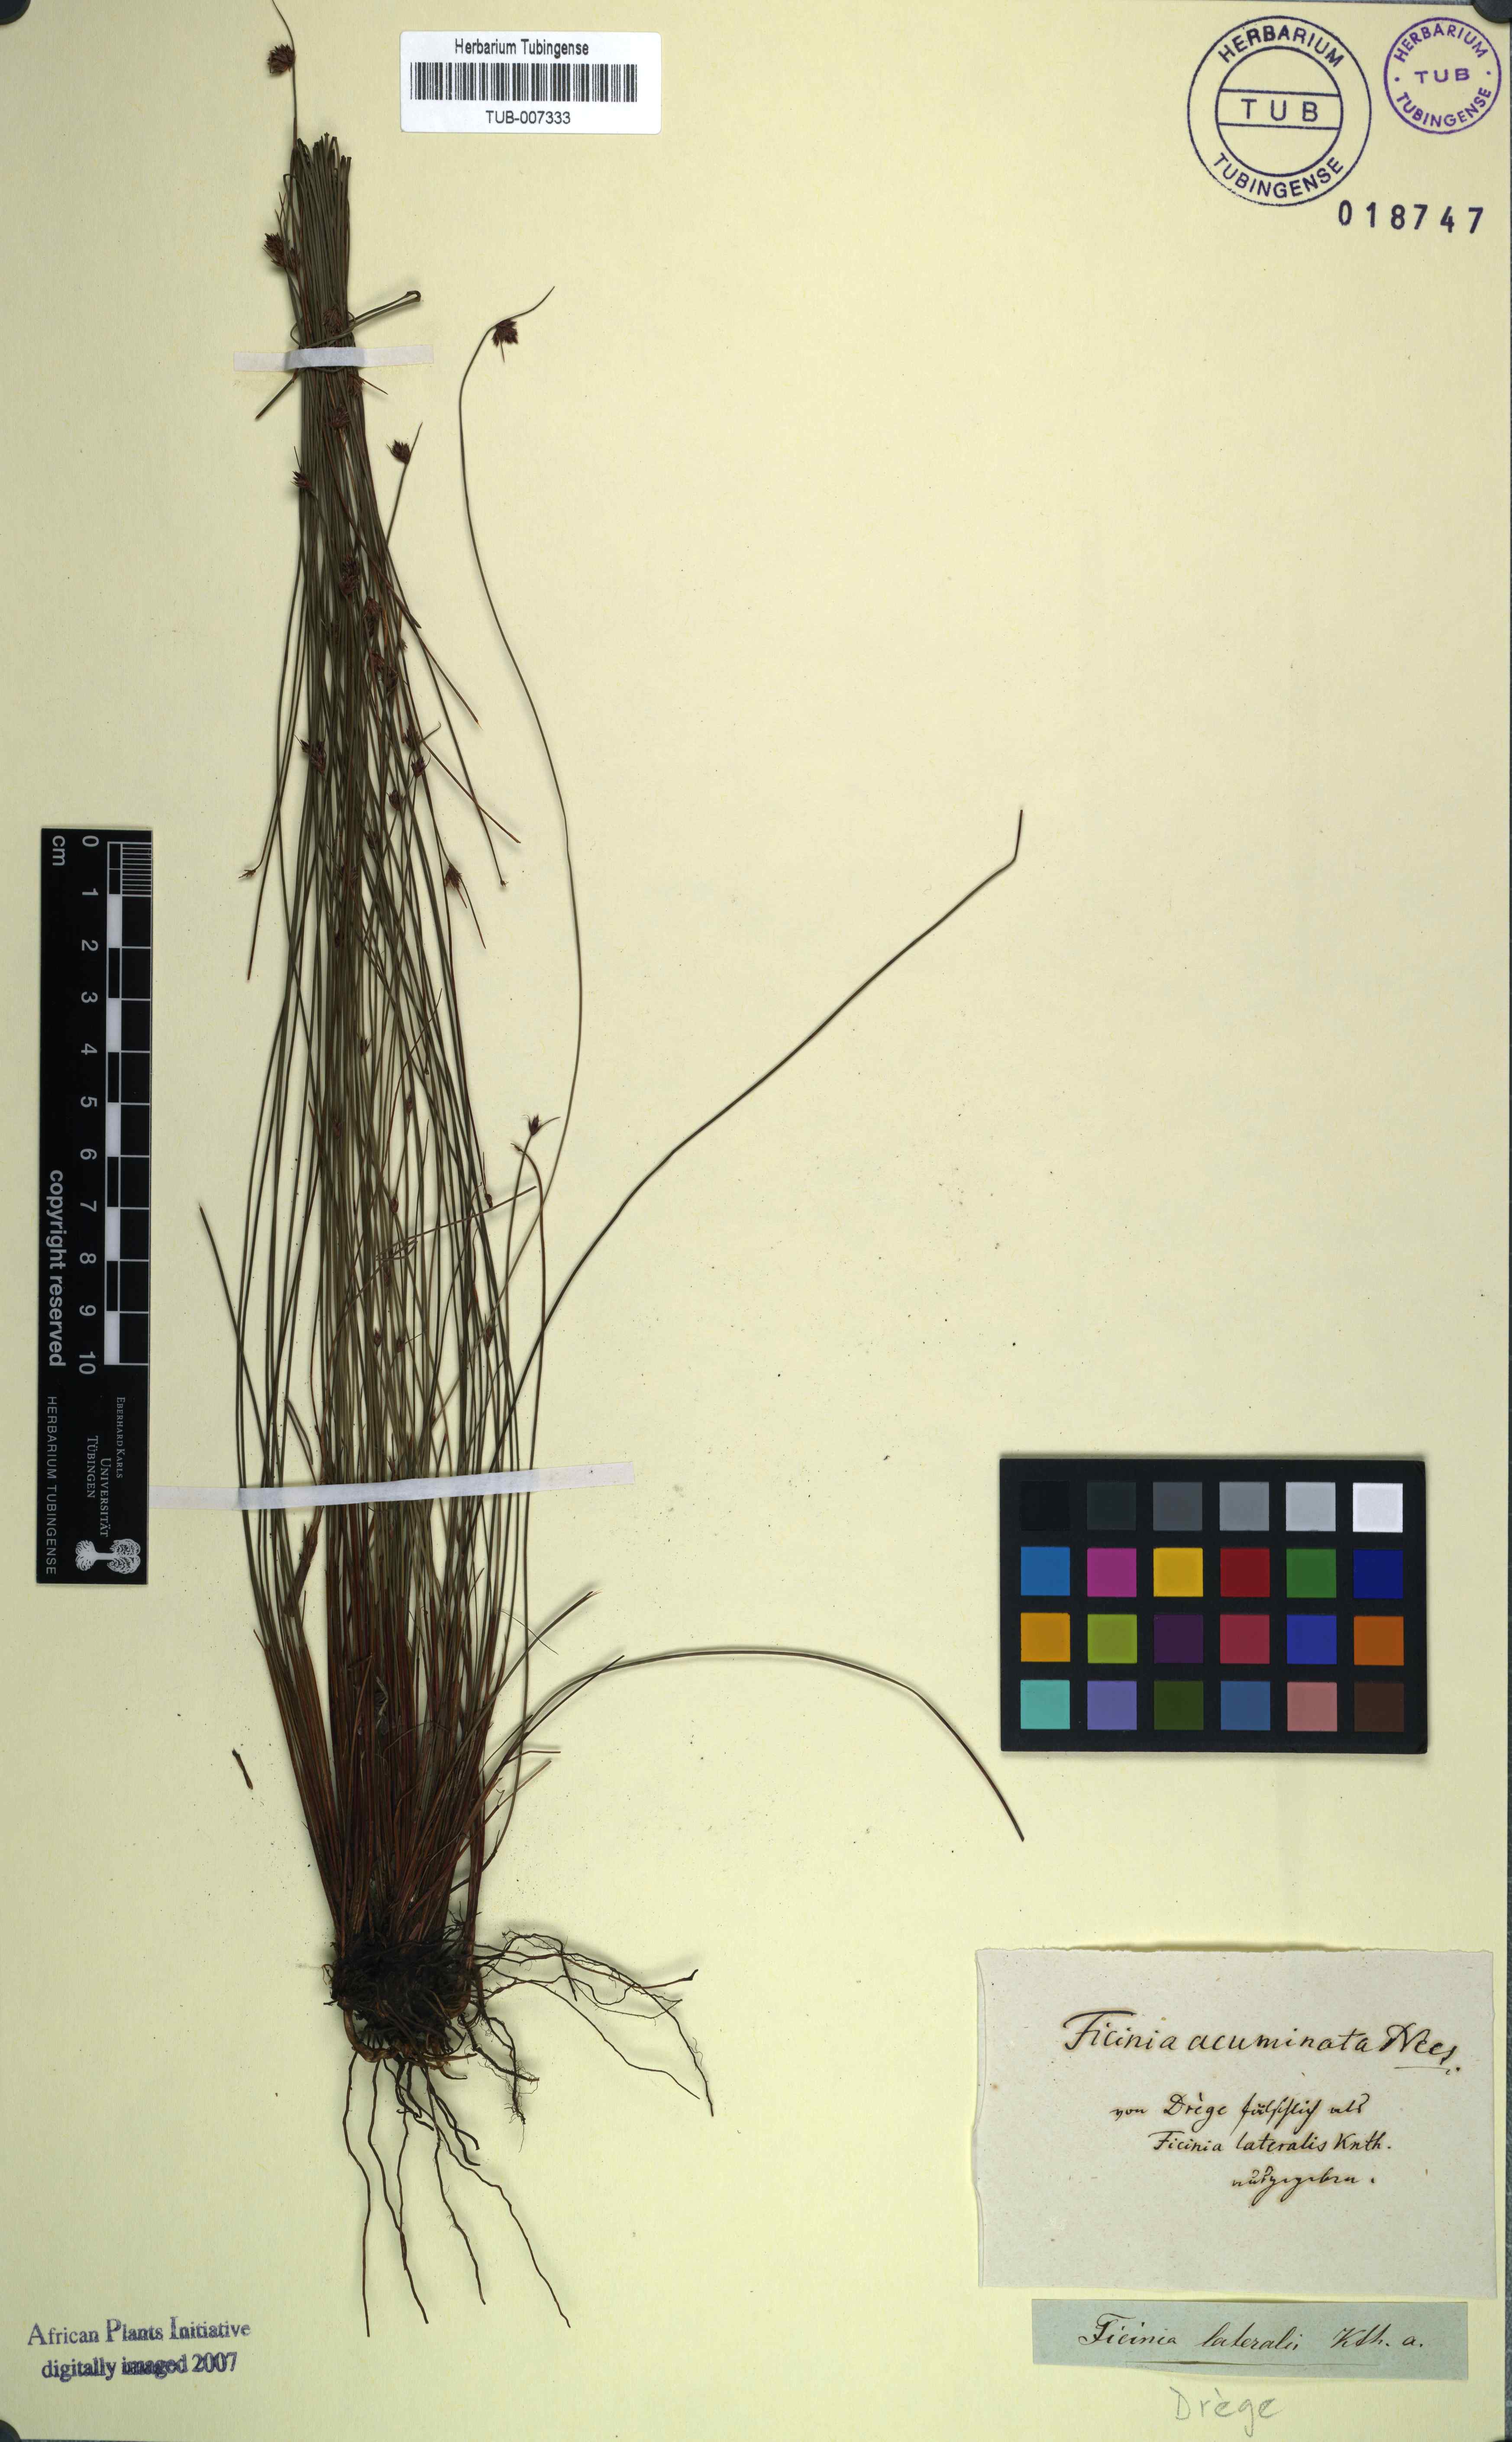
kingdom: Plantae
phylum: Tracheophyta
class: Liliopsida
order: Poales
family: Cyperaceae
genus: Ficinia
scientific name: Ficinia acuminata
